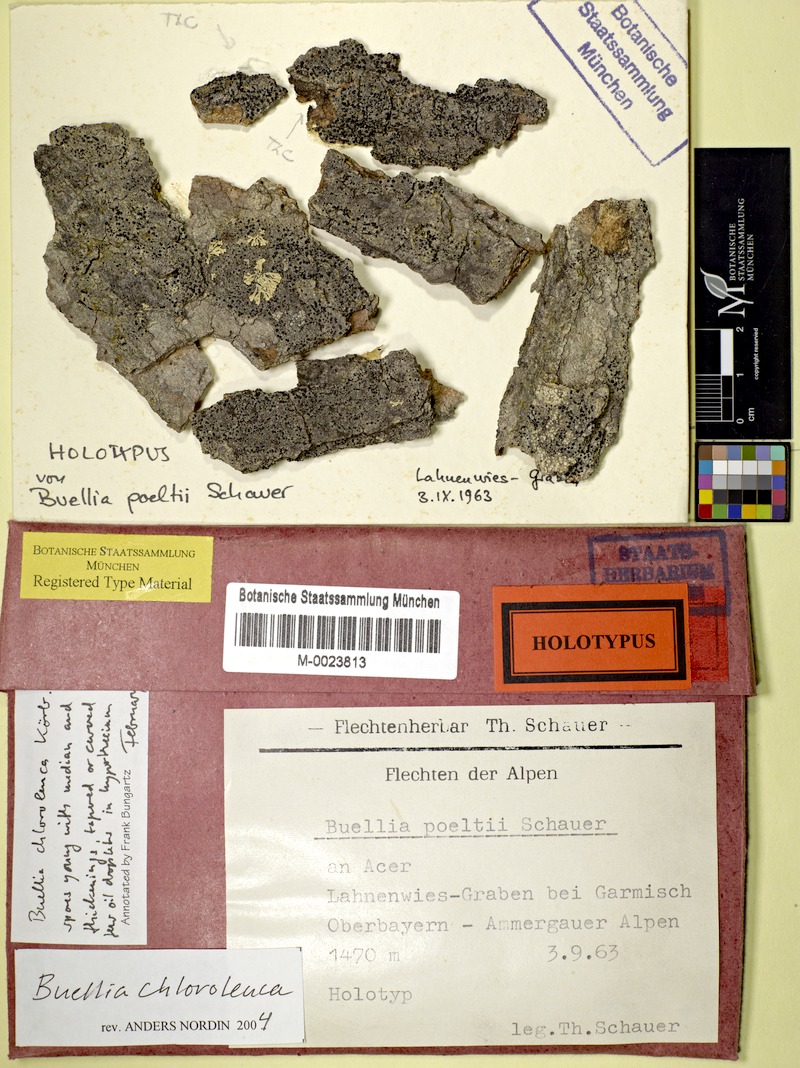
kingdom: Fungi
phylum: Ascomycota
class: Lecanoromycetes
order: Caliciales
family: Caliciaceae
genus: Tetramelas
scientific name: Tetramelas poeltii
